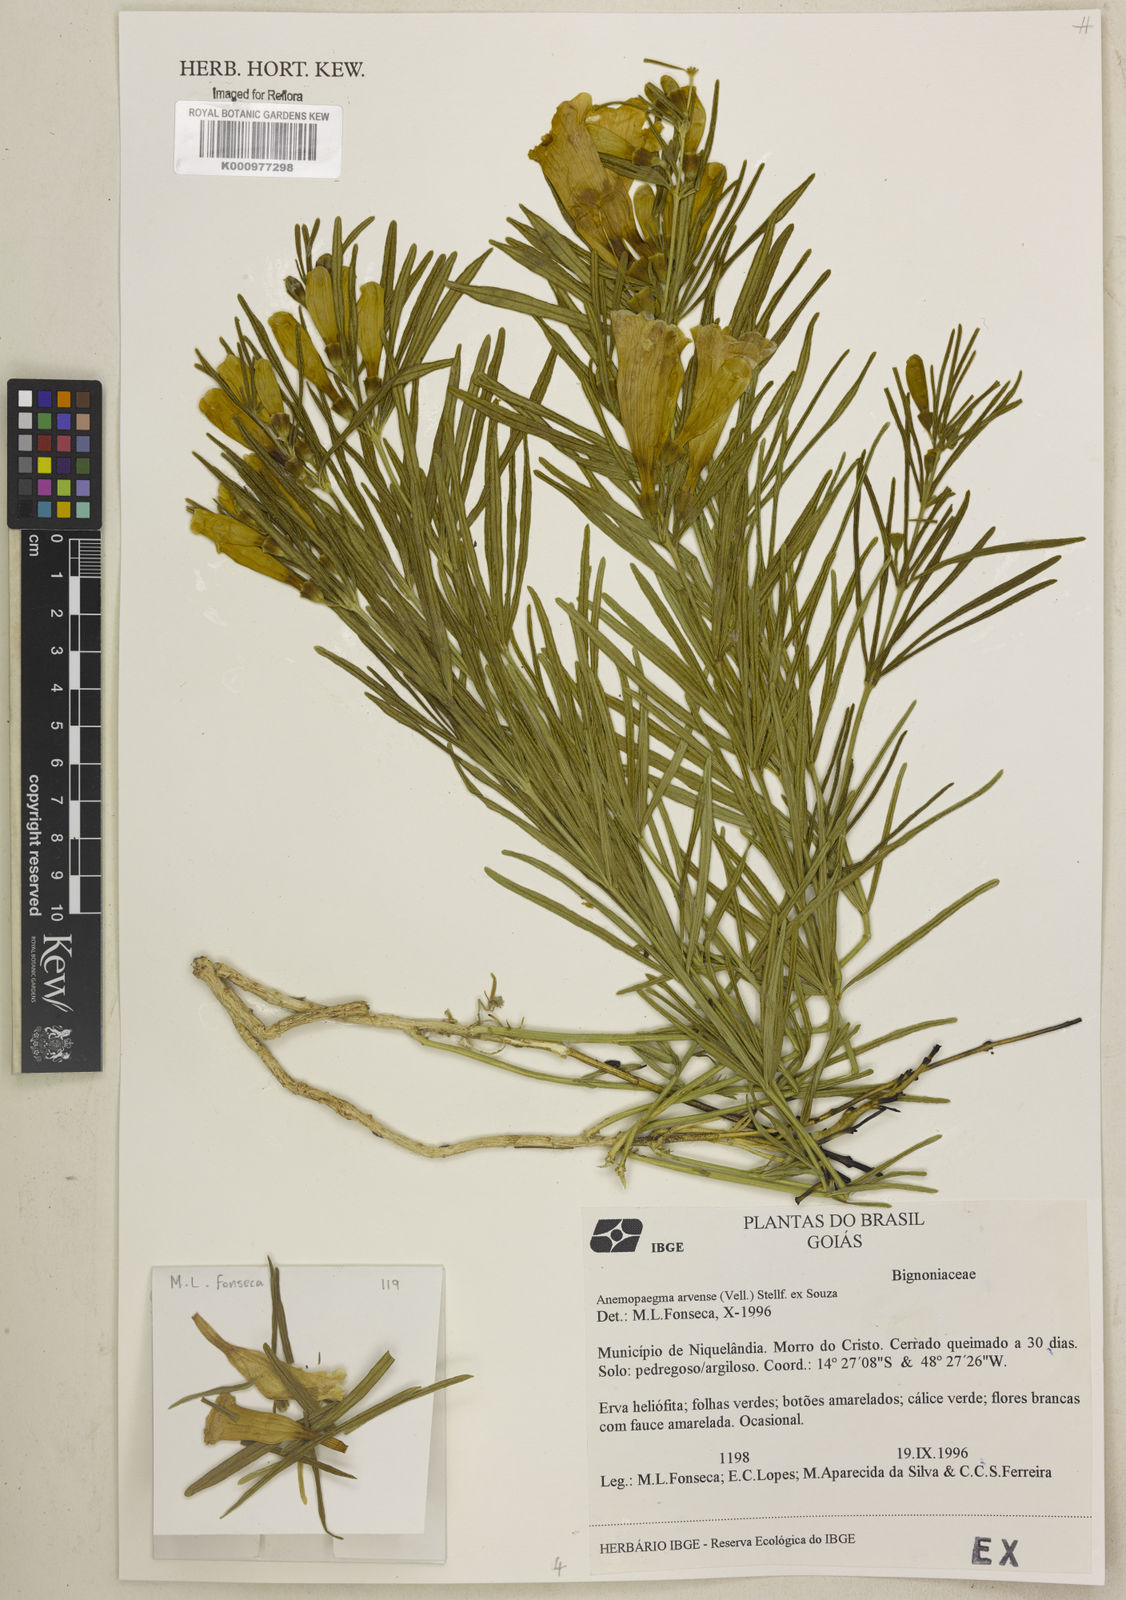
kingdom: Plantae
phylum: Tracheophyta
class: Magnoliopsida
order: Lamiales
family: Bignoniaceae
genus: Anemopaegma
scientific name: Anemopaegma arvense
